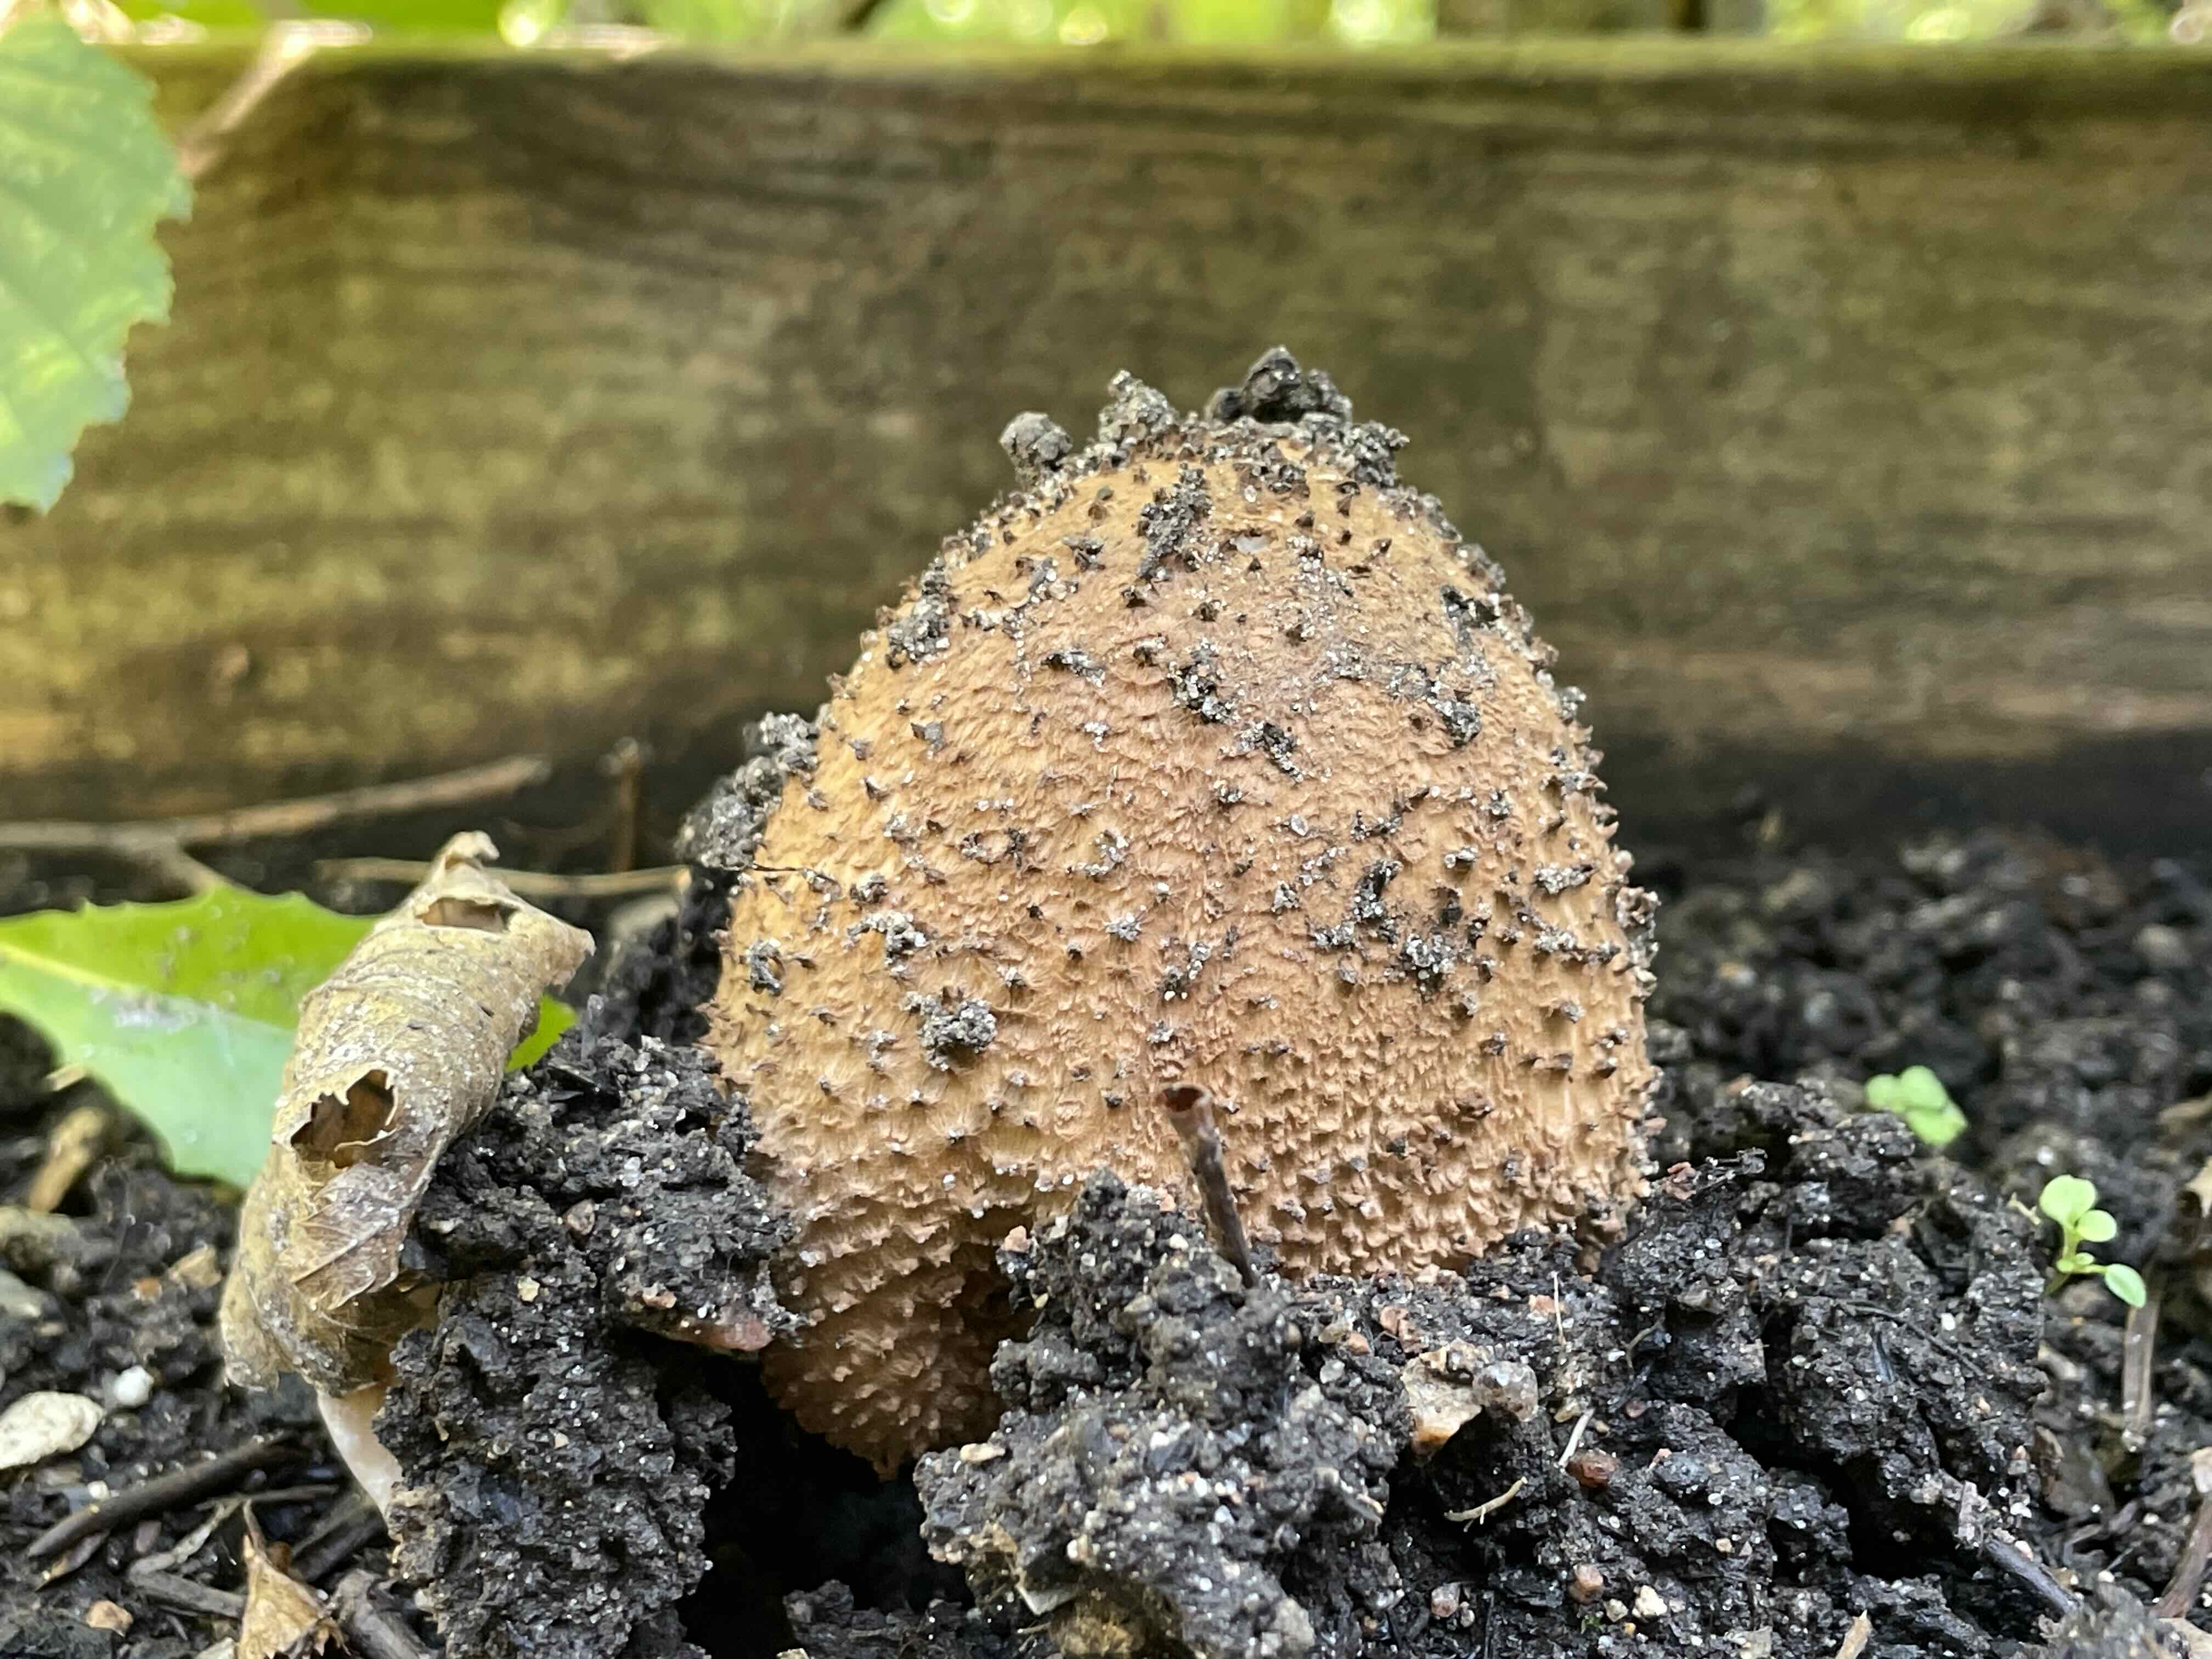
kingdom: Fungi
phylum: Basidiomycota
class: Agaricomycetes
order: Agaricales
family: Agaricaceae
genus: Echinoderma
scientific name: Echinoderma asperum
